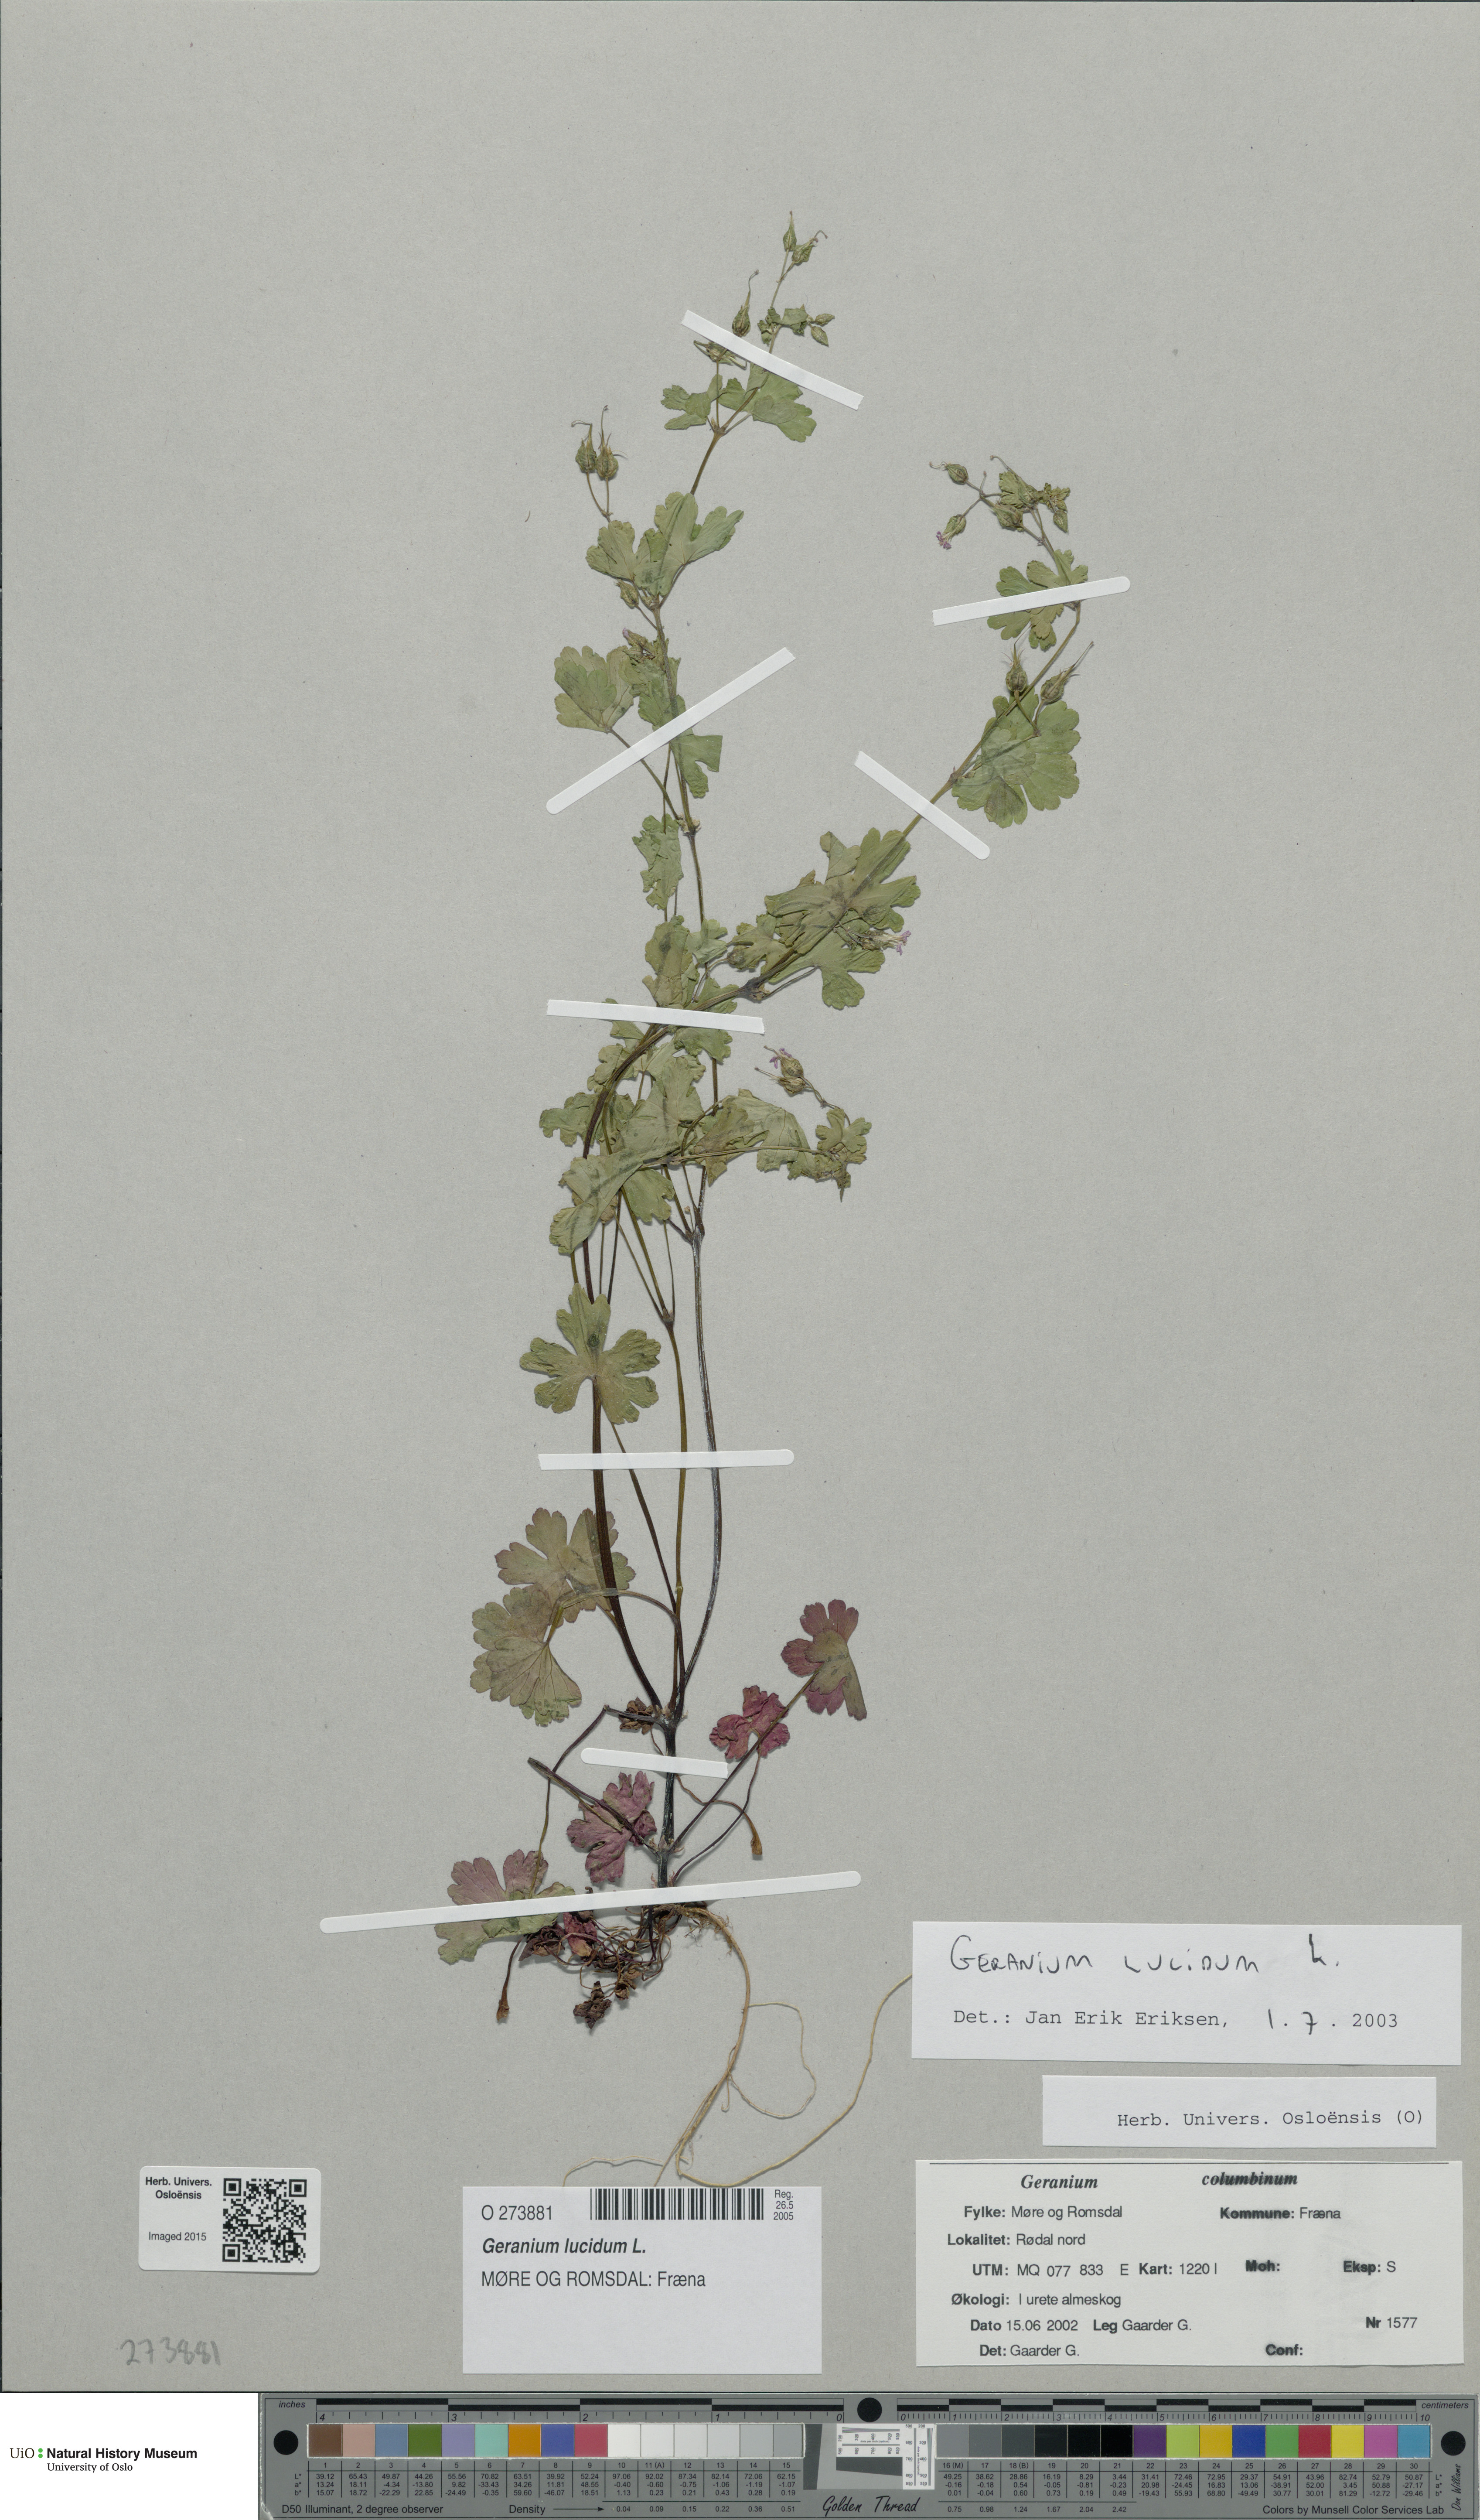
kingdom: Plantae
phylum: Tracheophyta
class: Magnoliopsida
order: Geraniales
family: Geraniaceae
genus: Geranium
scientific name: Geranium lucidum
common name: Shining crane's-bill
